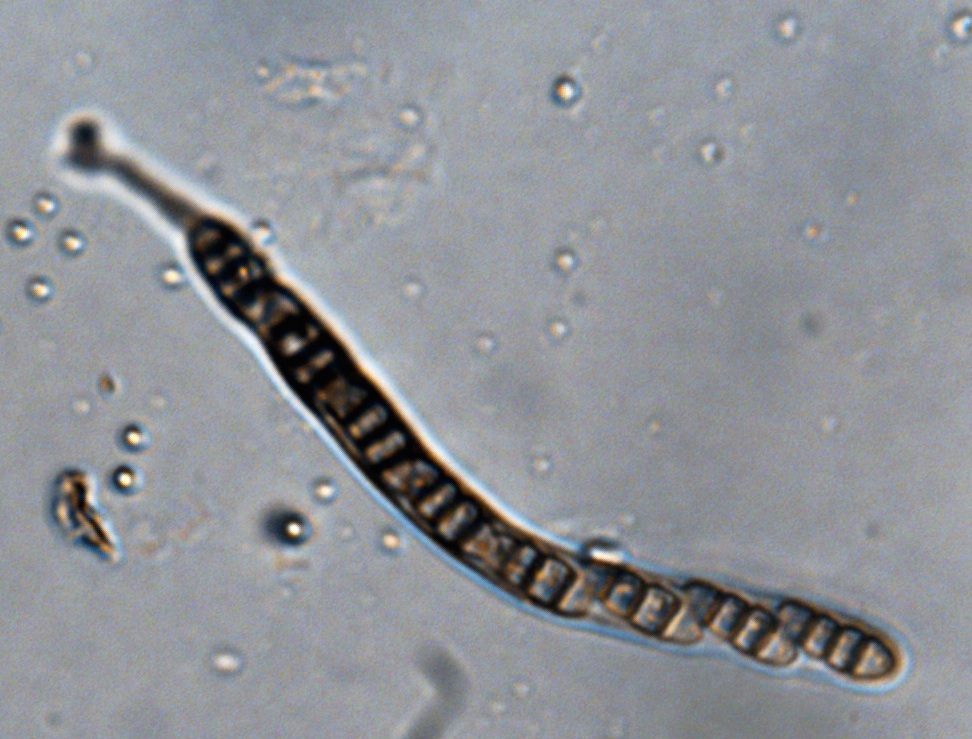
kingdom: Fungi
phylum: Ascomycota
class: Dothideomycetes
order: Pleosporales
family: Melanommataceae
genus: Melanomma
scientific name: Melanomma pulvis-pyrius
